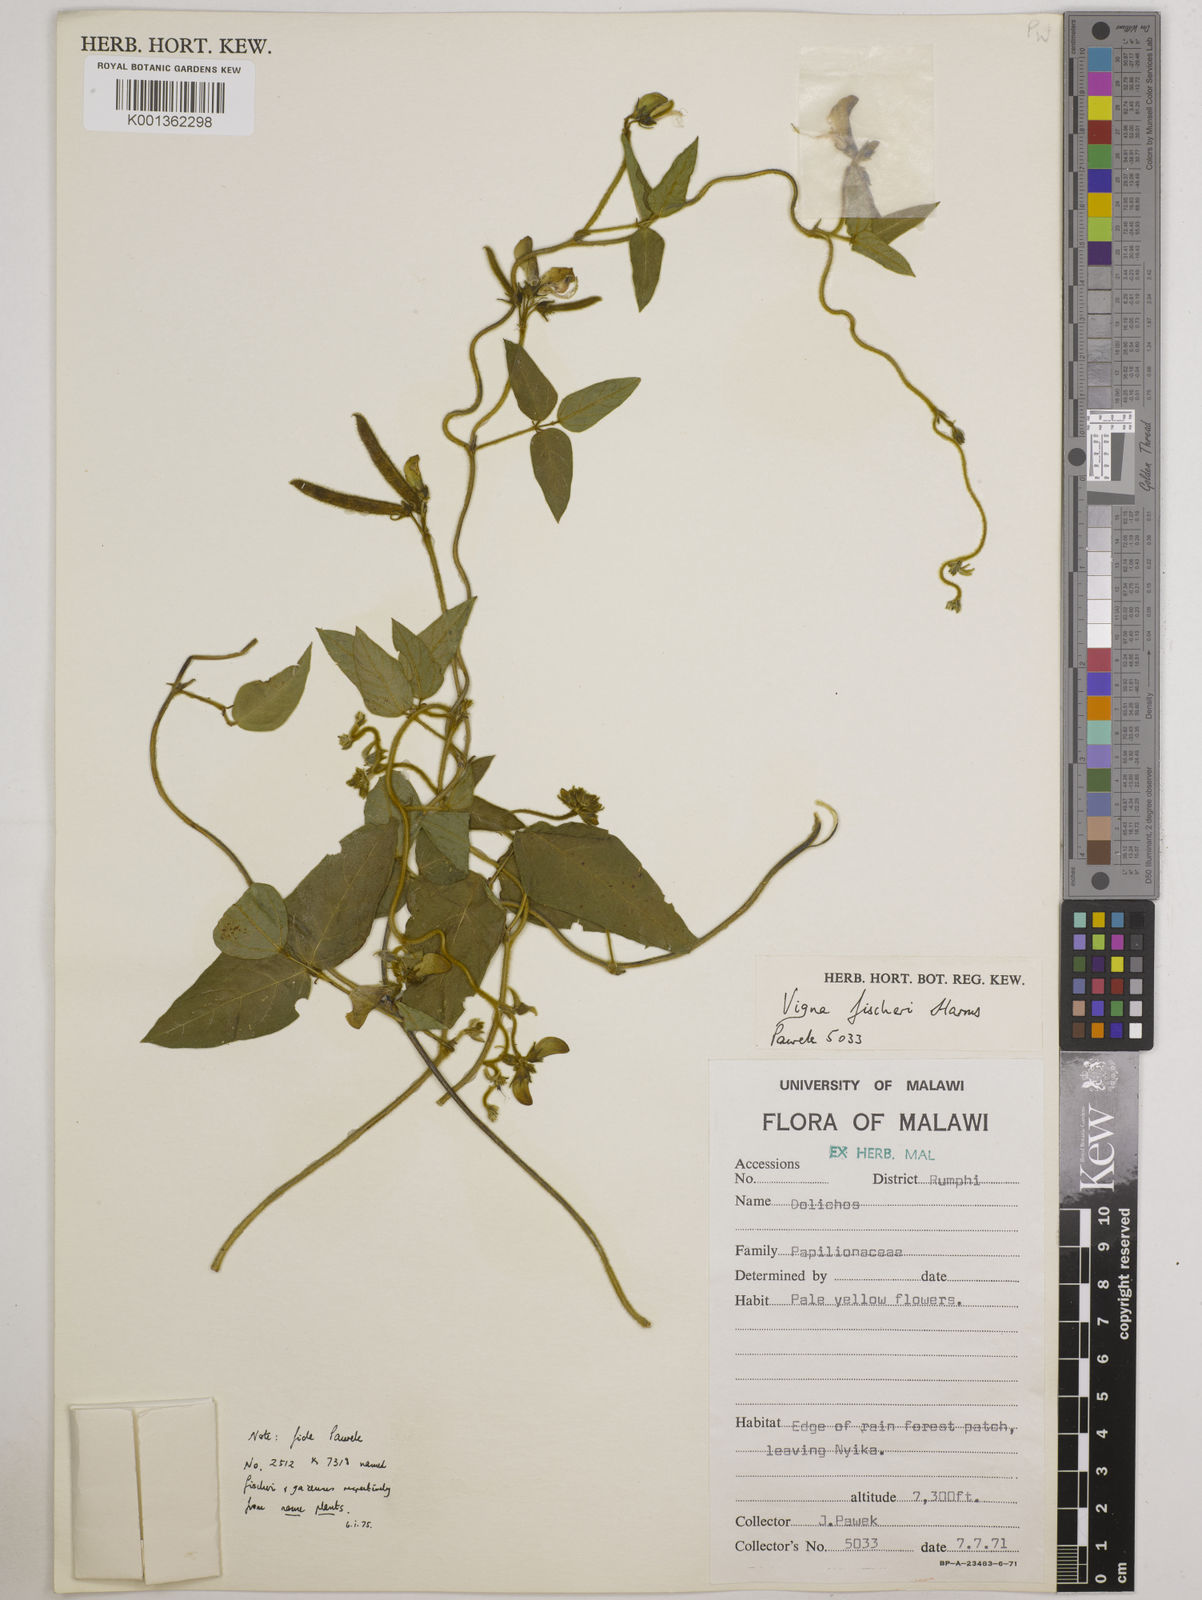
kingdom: Plantae
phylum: Tracheophyta
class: Magnoliopsida
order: Fabales
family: Fabaceae
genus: Vigna
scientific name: Vigna oblongifolia
